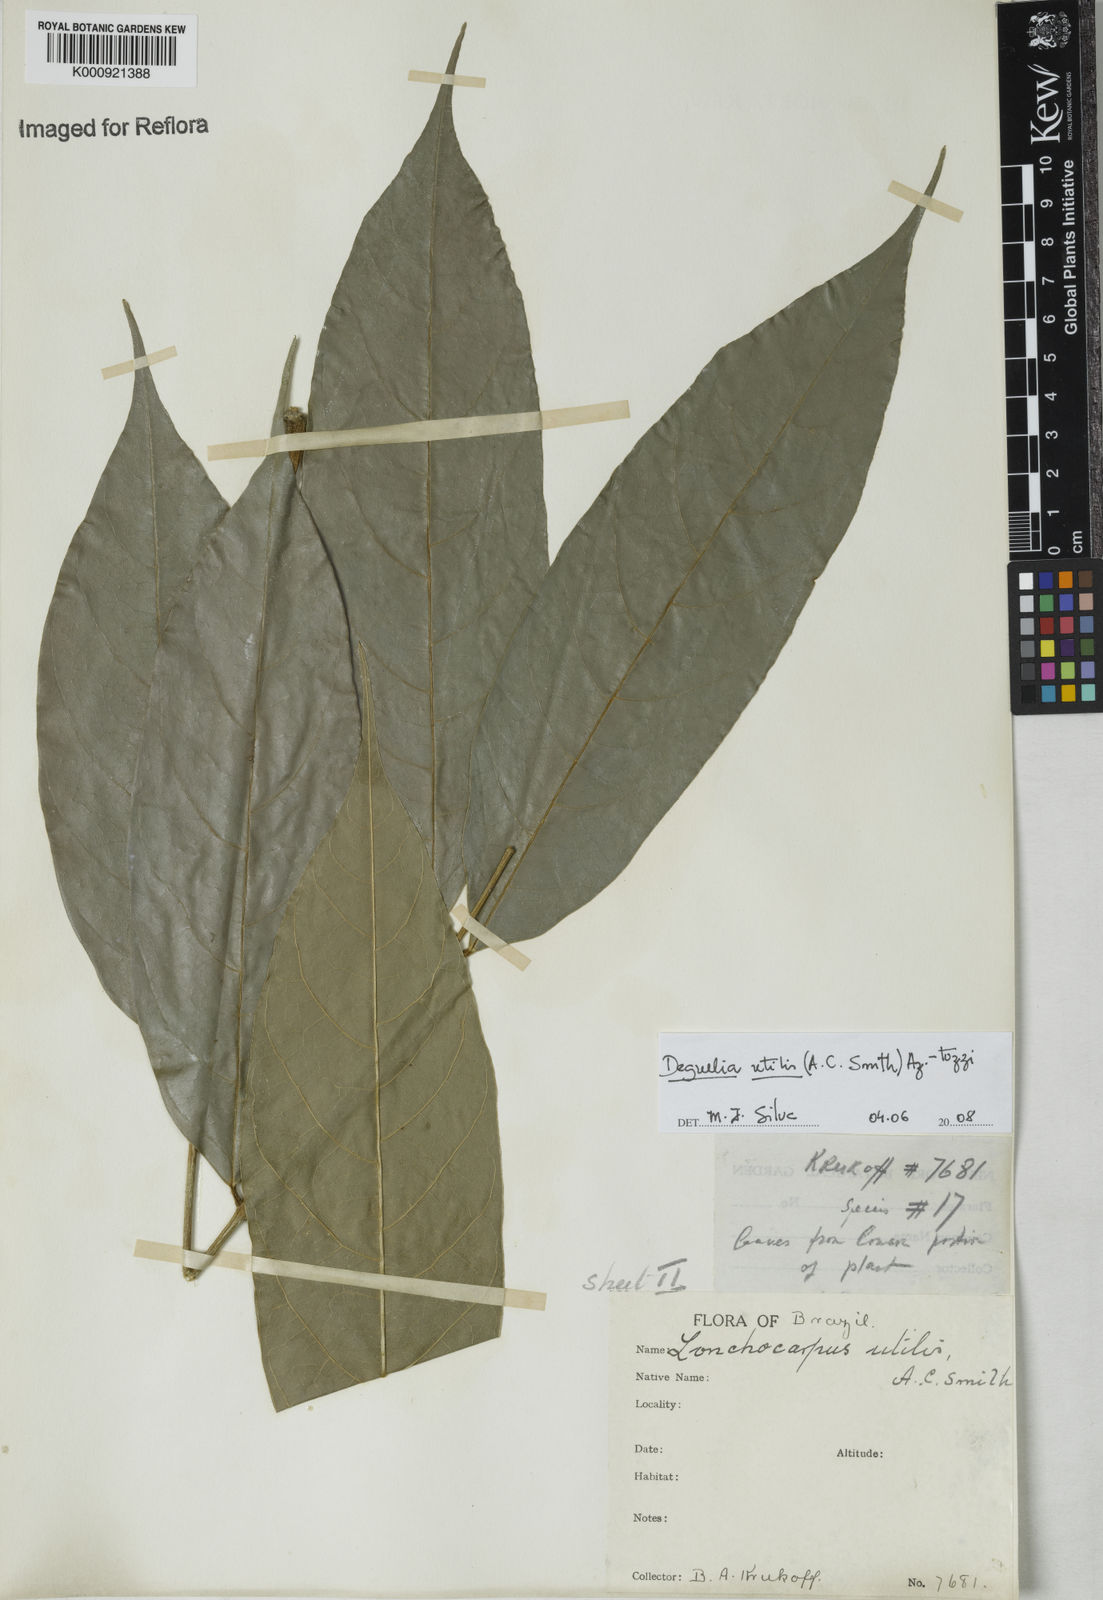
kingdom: Plantae
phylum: Tracheophyta
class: Magnoliopsida
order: Fabales
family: Fabaceae
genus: Deguelia
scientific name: Deguelia utilis
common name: Timbo
